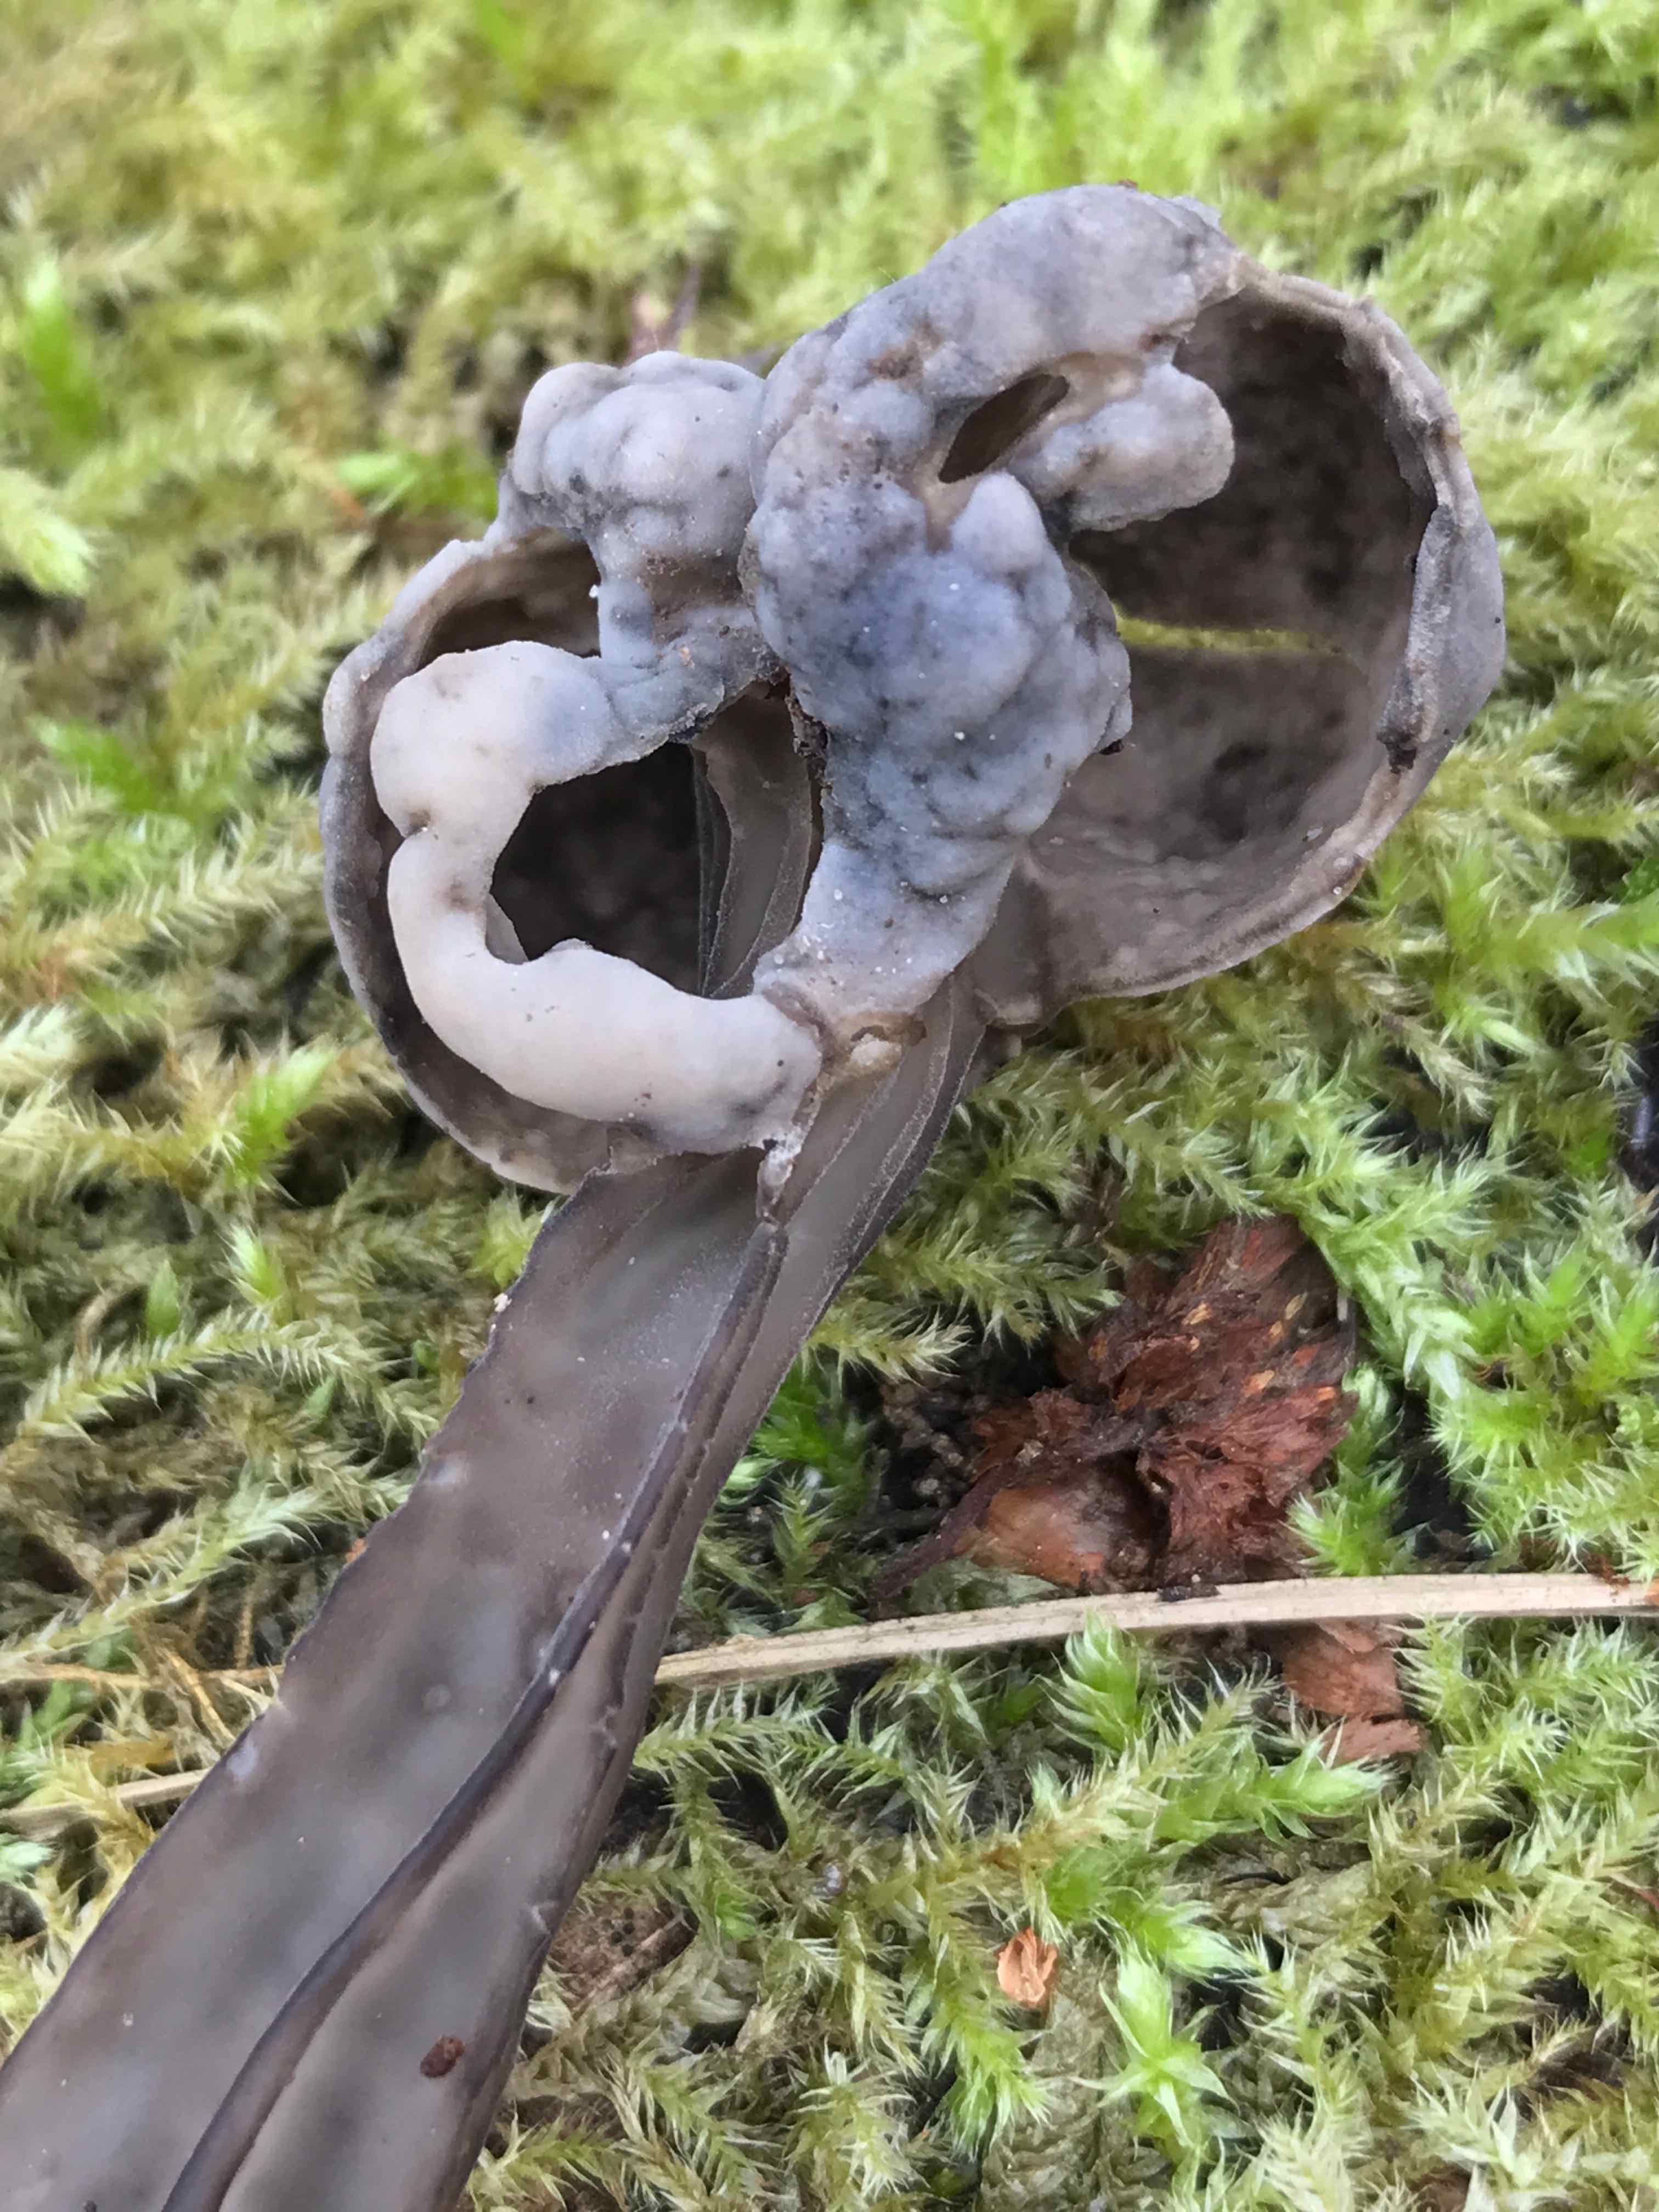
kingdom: Fungi
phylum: Ascomycota
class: Pezizomycetes
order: Pezizales
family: Helvellaceae
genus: Helvella
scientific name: Helvella lacunosa
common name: grubet foldhat
